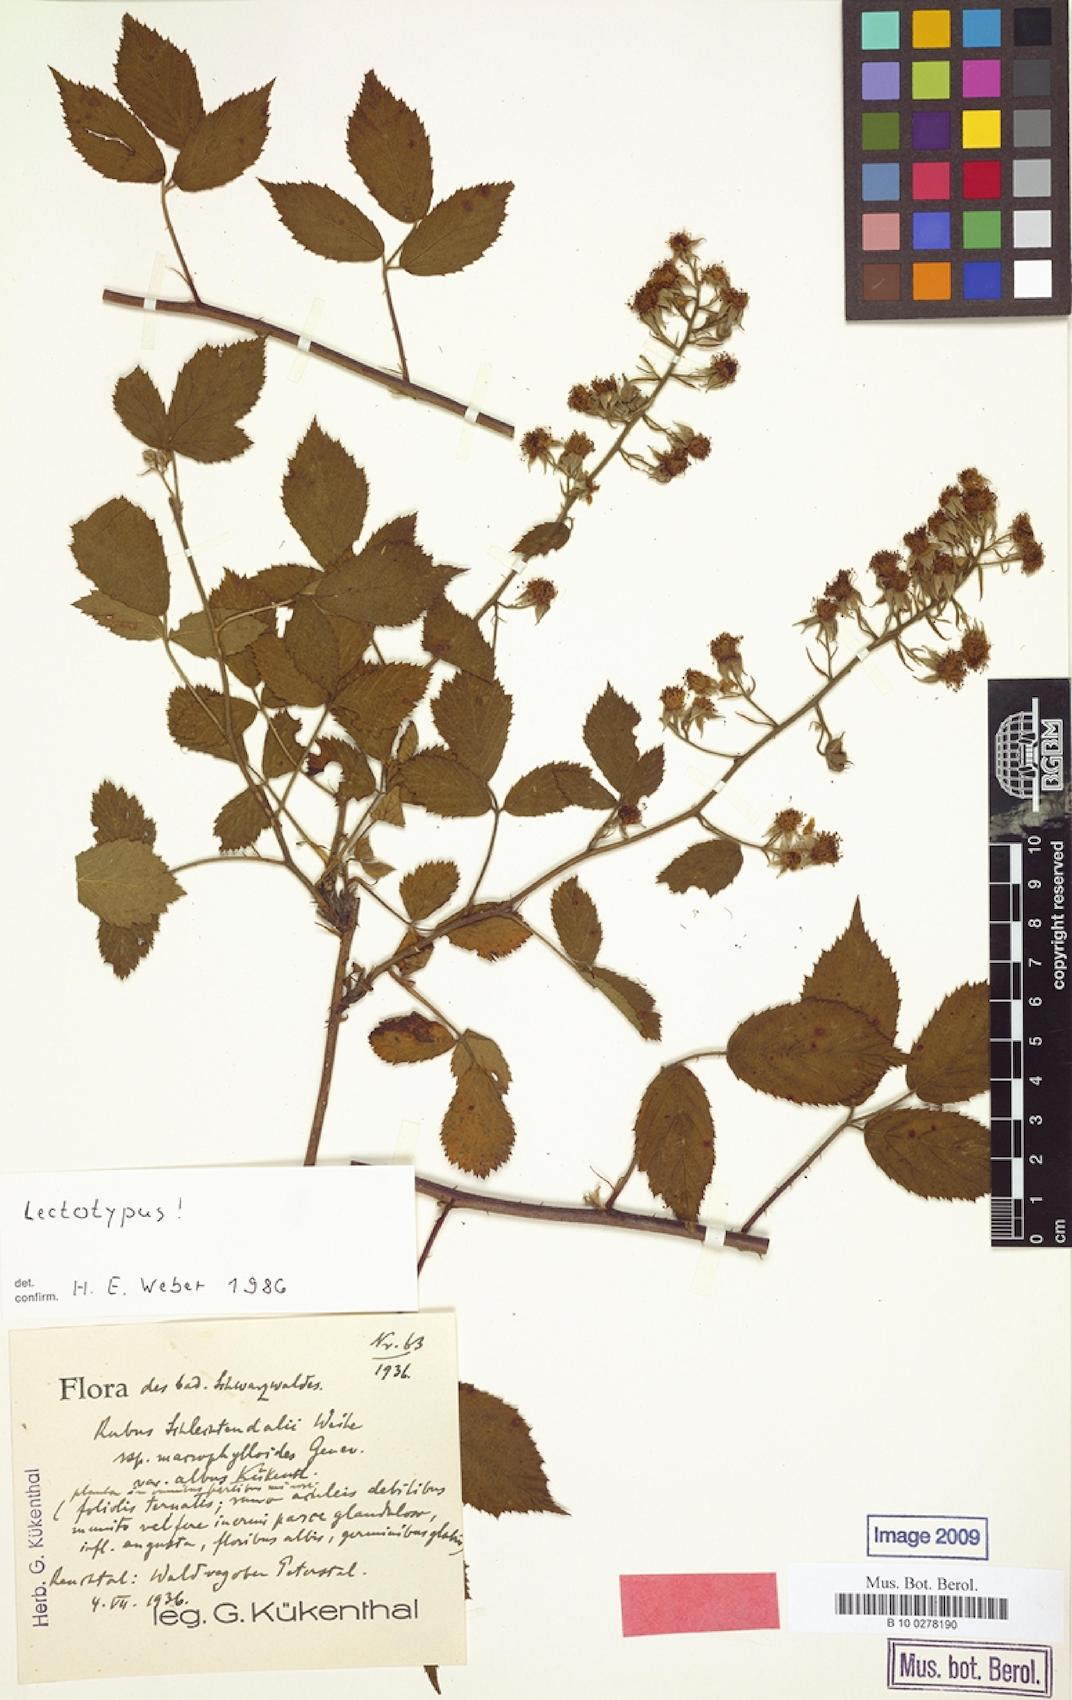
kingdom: Plantae
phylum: Tracheophyta
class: Magnoliopsida
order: Rosales
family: Rosaceae
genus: Rubus
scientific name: Rubus silvaticus
